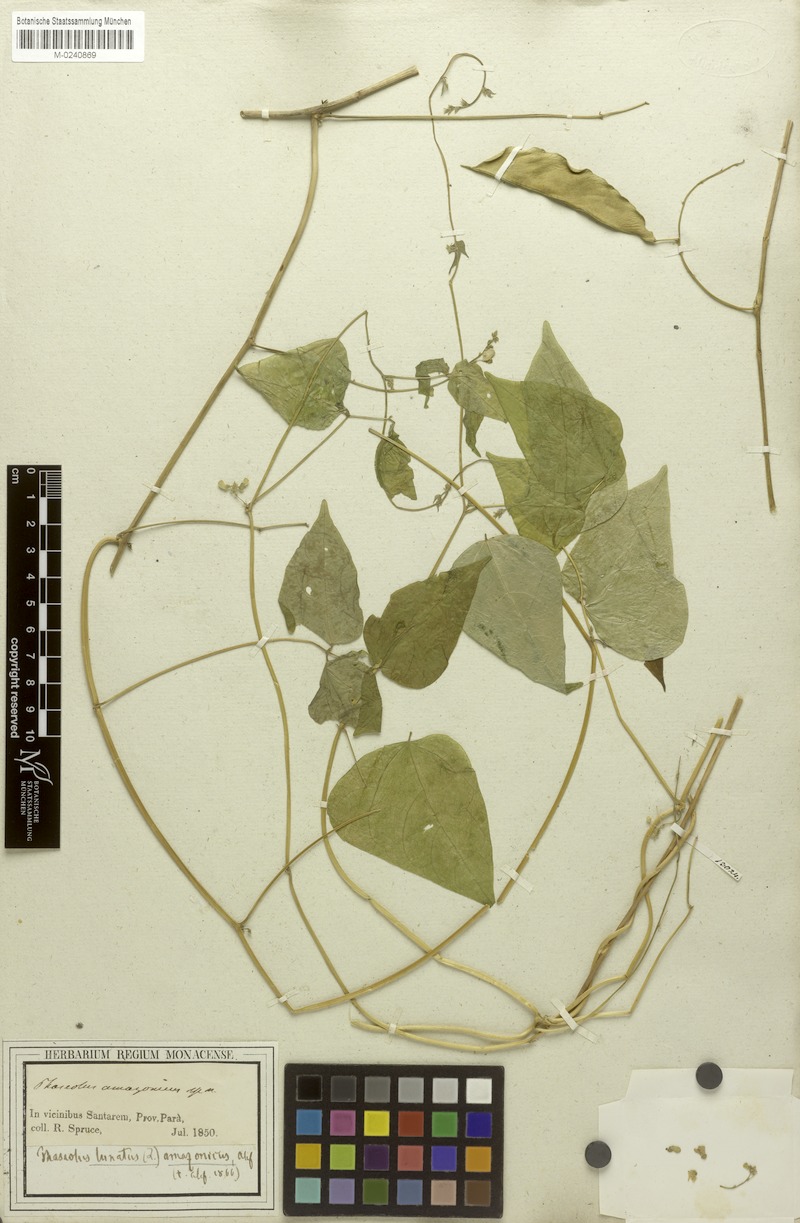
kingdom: Plantae
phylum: Tracheophyta
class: Magnoliopsida
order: Fabales
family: Fabaceae
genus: Phaseolus
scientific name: Phaseolus lunatus
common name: Sieva bean
